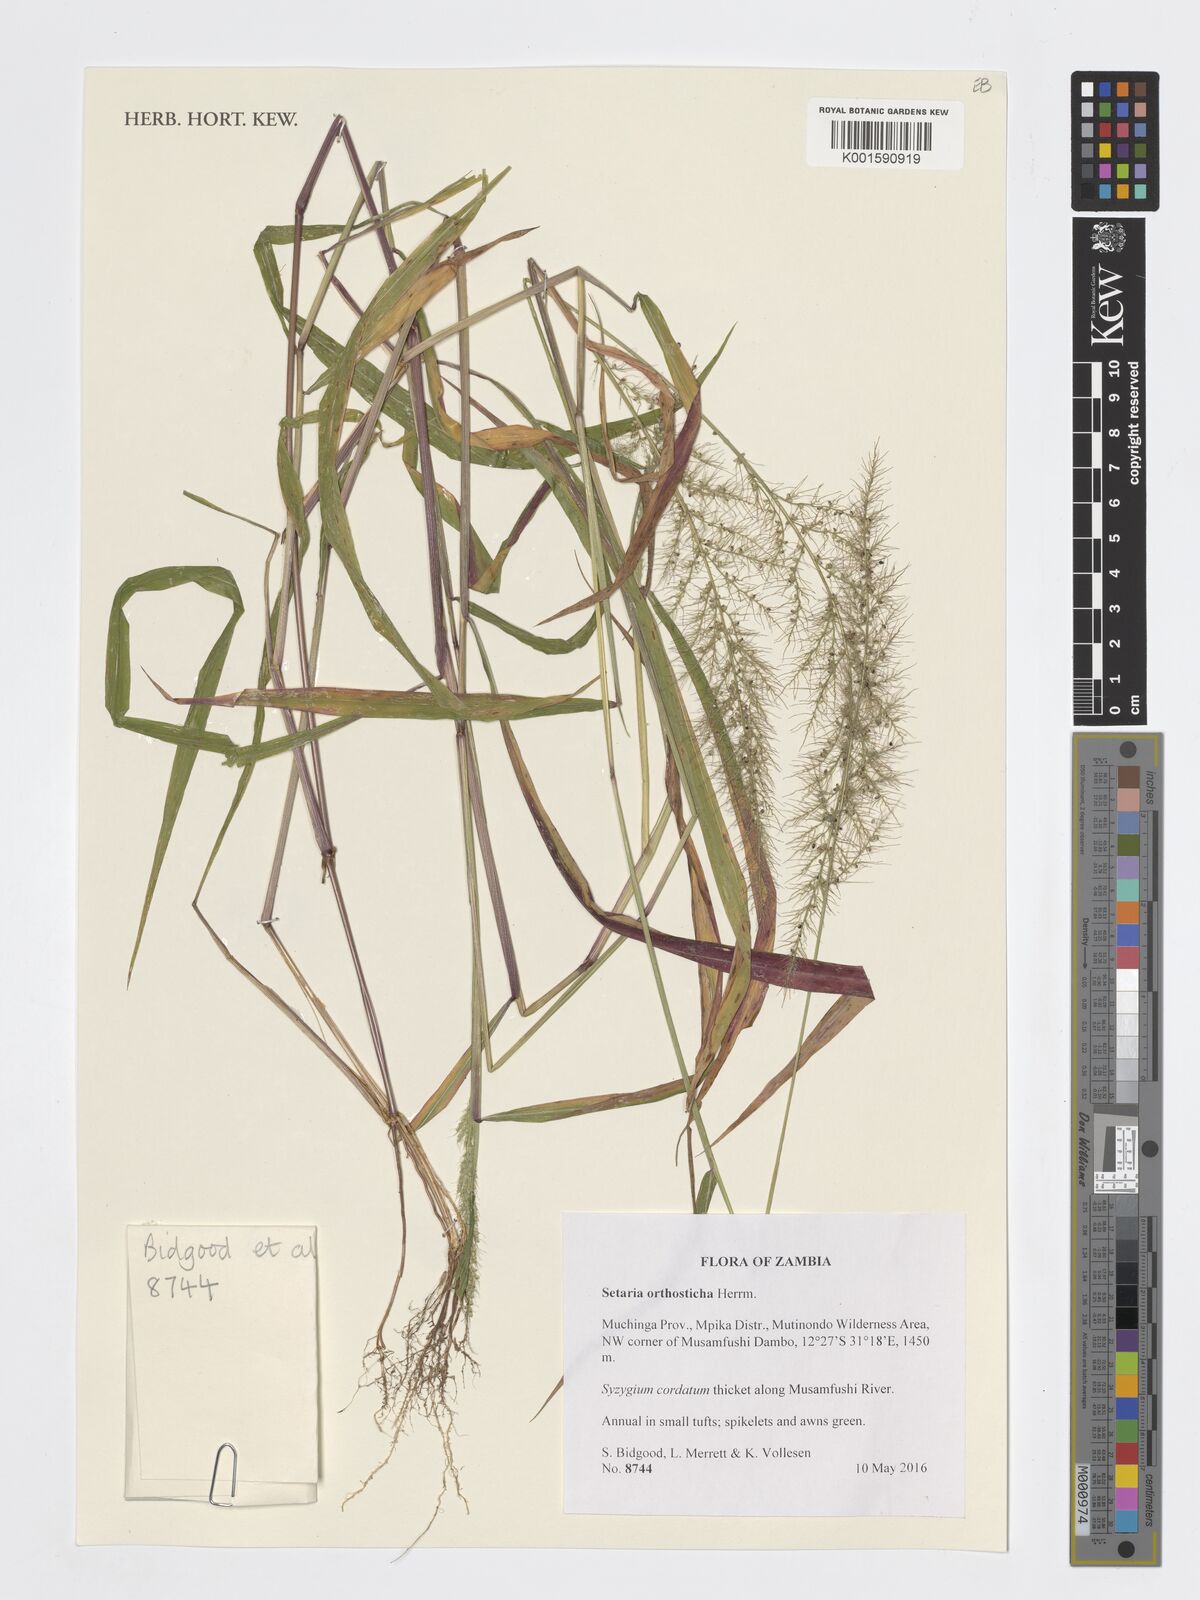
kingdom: Plantae
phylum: Tracheophyta
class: Liliopsida
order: Poales
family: Poaceae
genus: Setaria
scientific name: Setaria orthosticha
